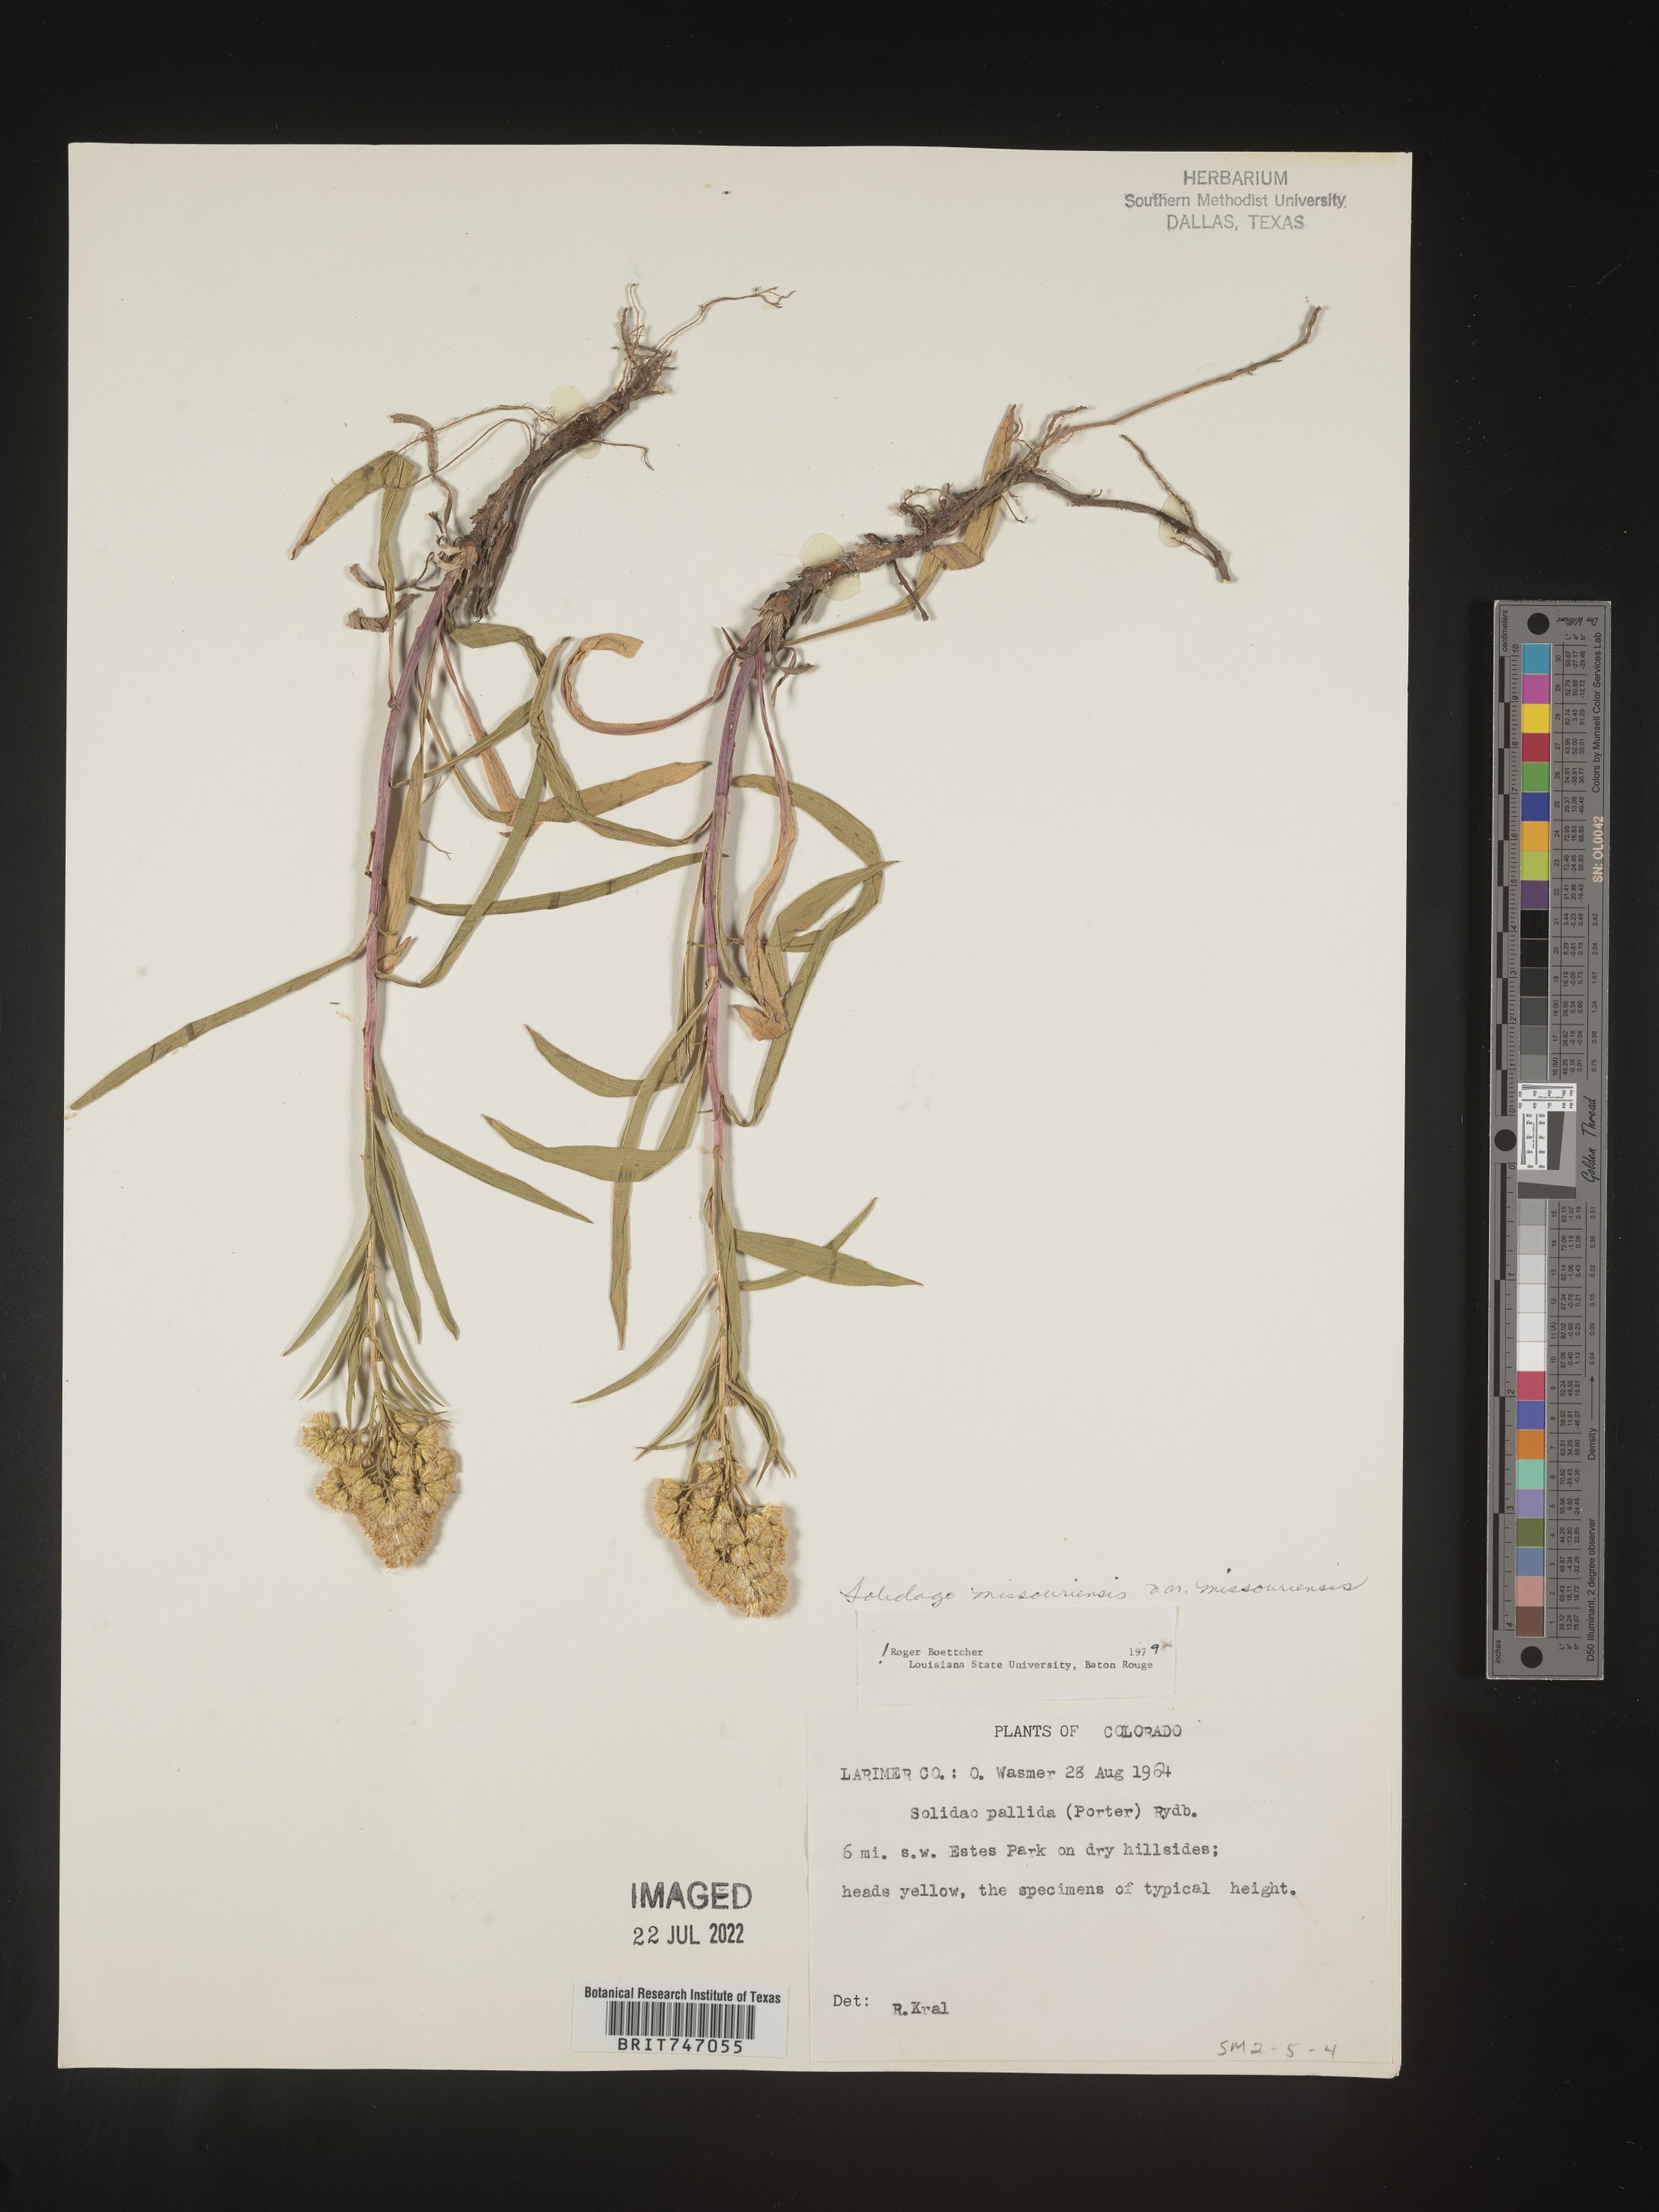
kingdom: Plantae
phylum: Tracheophyta
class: Magnoliopsida
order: Asterales
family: Asteraceae
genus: Solidago
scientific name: Solidago missouriensis
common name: Prairie goldenrod
